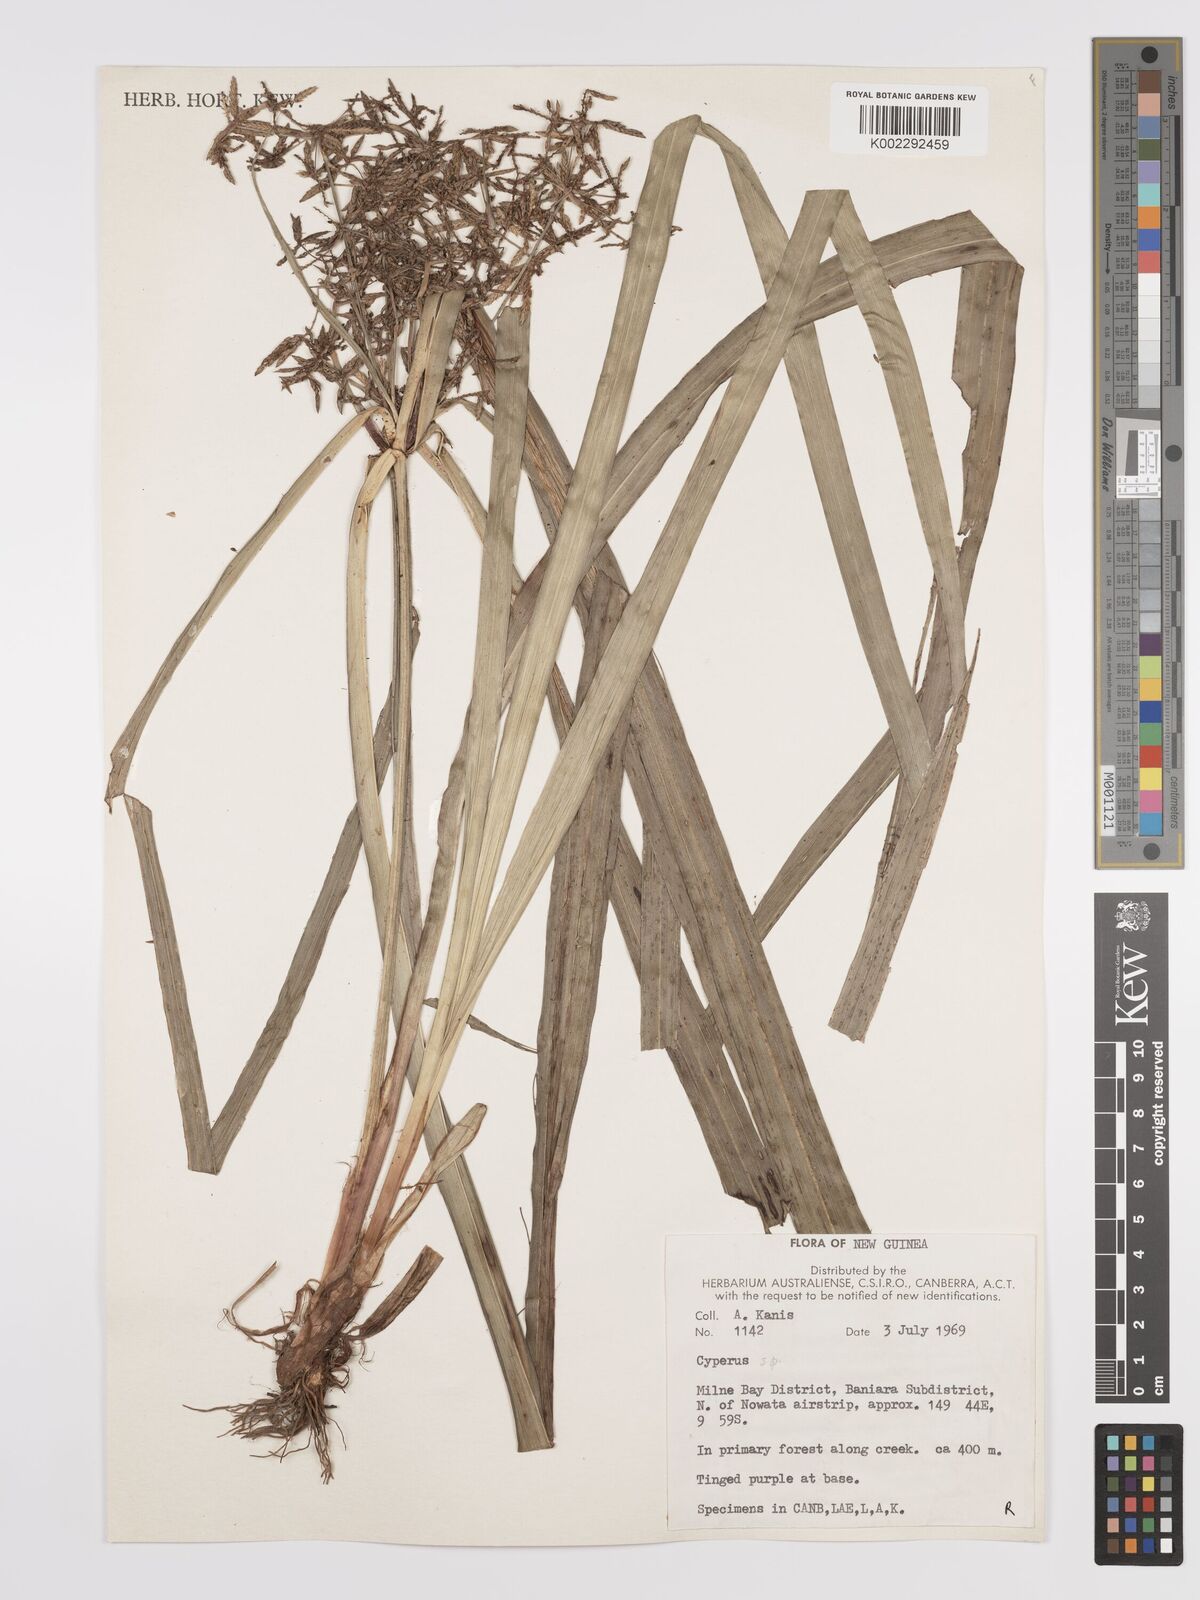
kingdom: Plantae
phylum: Tracheophyta
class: Liliopsida
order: Poales
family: Cyperaceae
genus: Cyperus
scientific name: Cyperus pedunculosus
